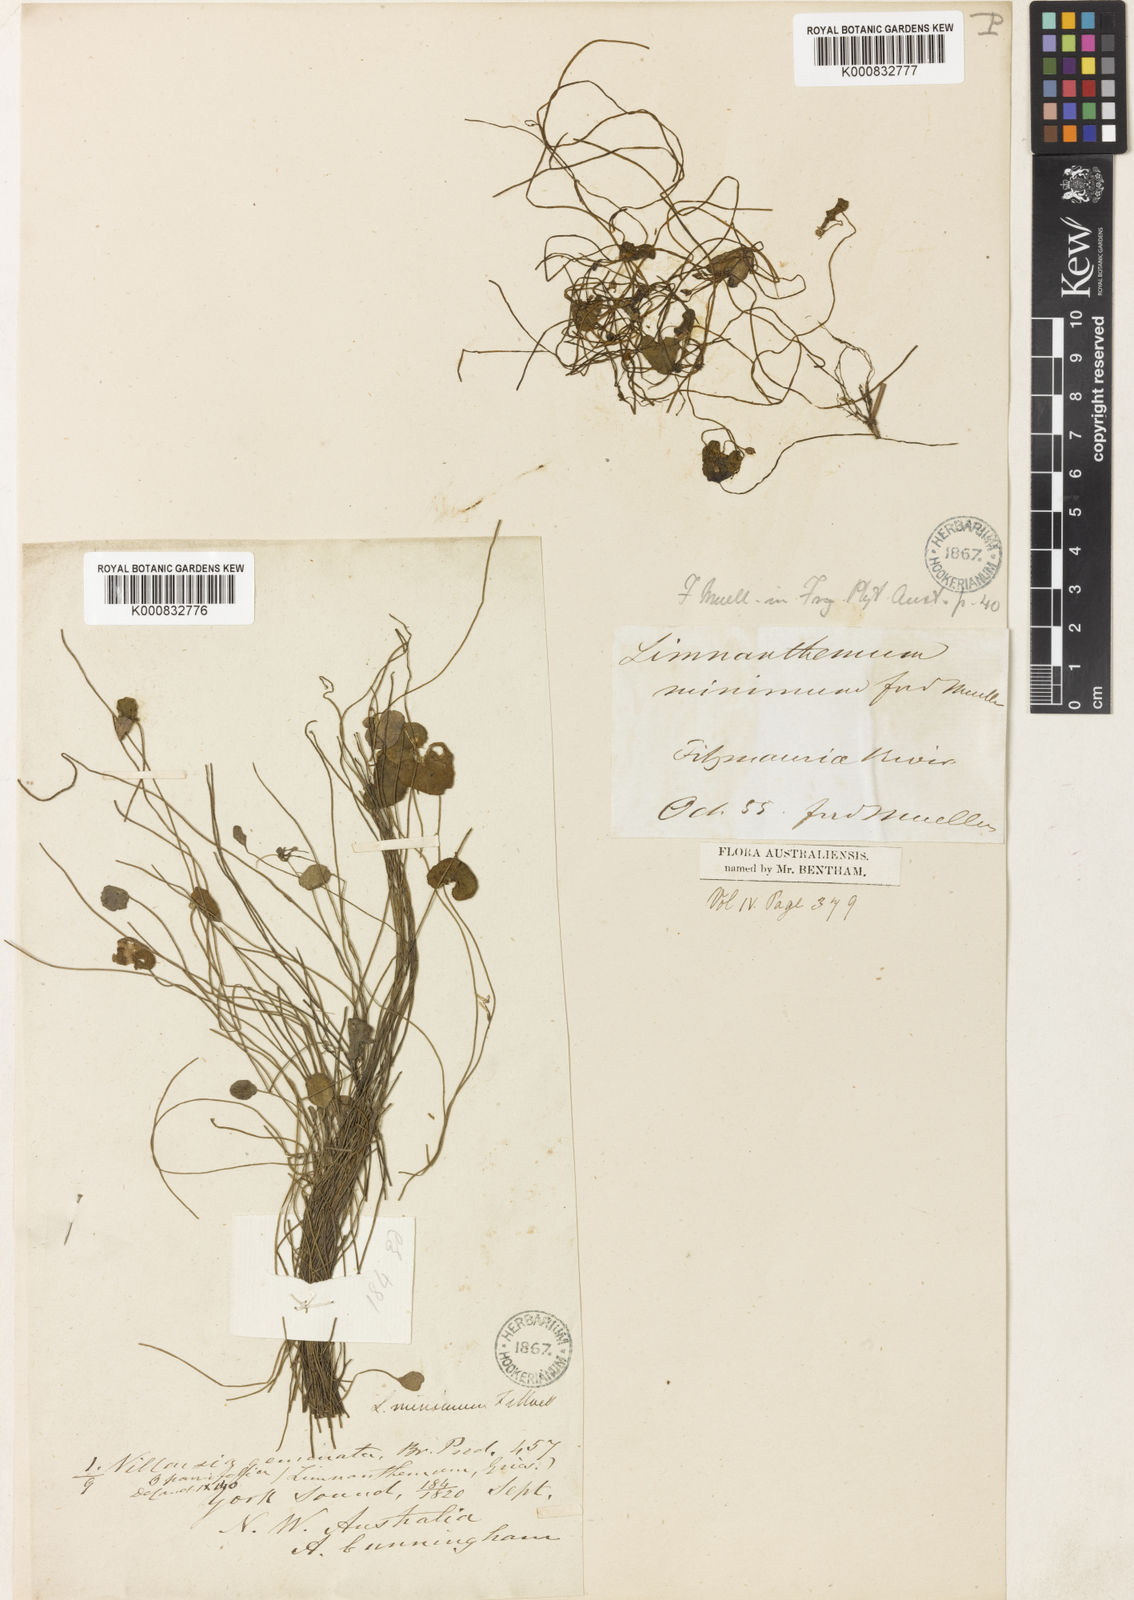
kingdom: Plantae
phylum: Tracheophyta
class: Magnoliopsida
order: Asterales
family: Menyanthaceae
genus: Nymphoides
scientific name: Nymphoides minima
